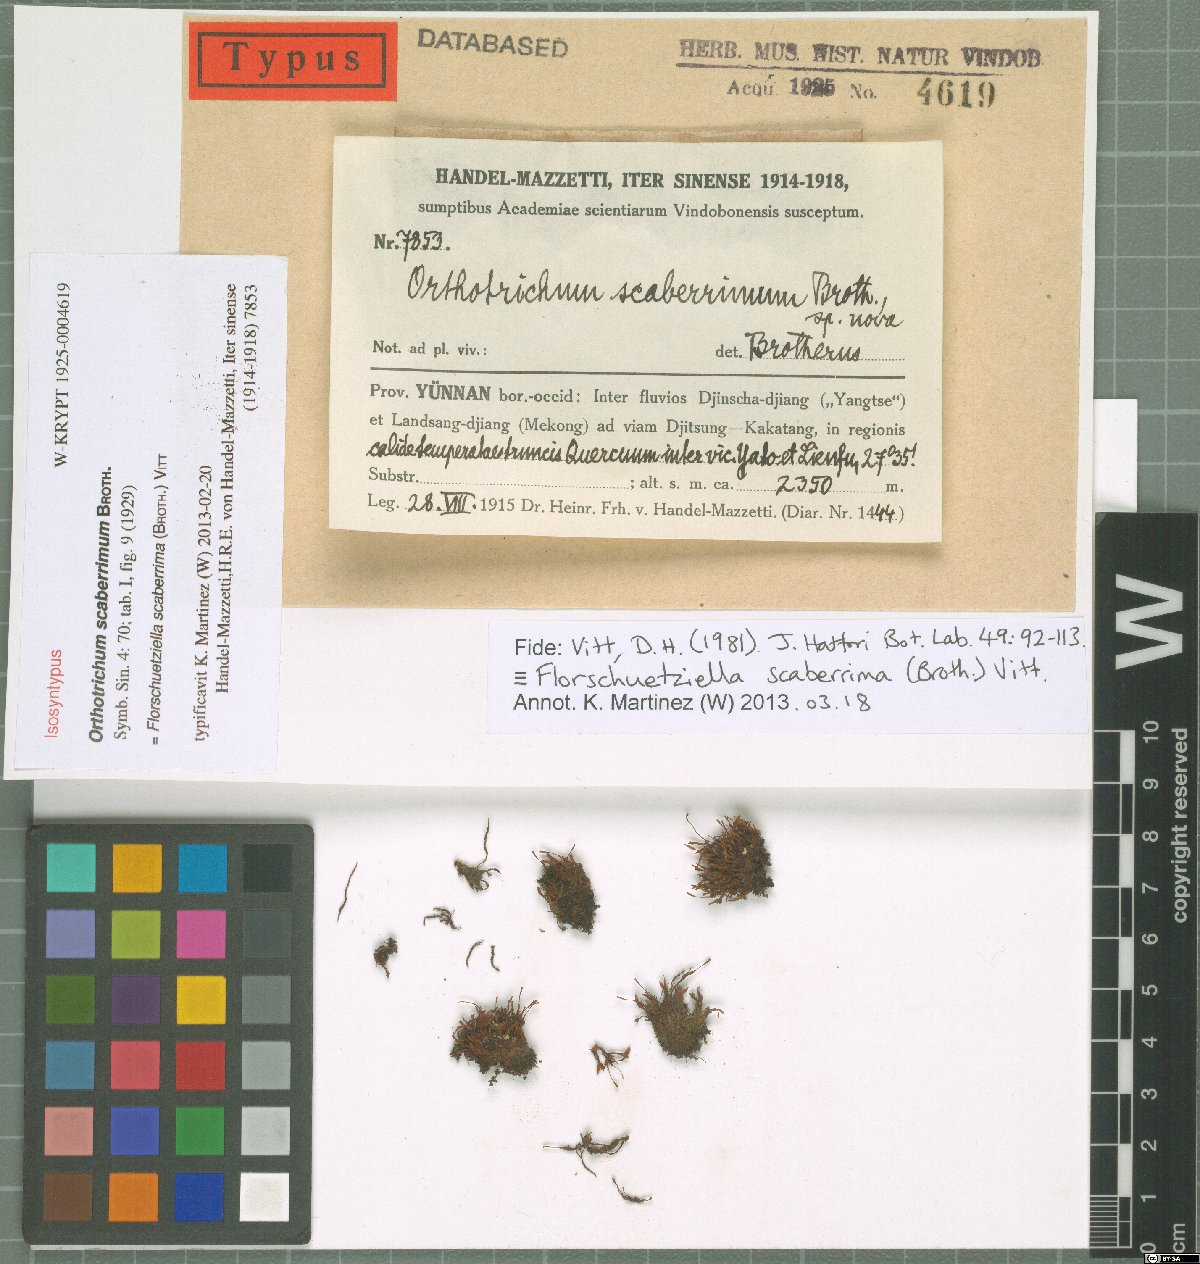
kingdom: Plantae
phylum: Bryophyta
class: Bryopsida
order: Orthotrichales
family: Orthotrichaceae
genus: Florschuetziella
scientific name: Florschuetziella scaberrima
